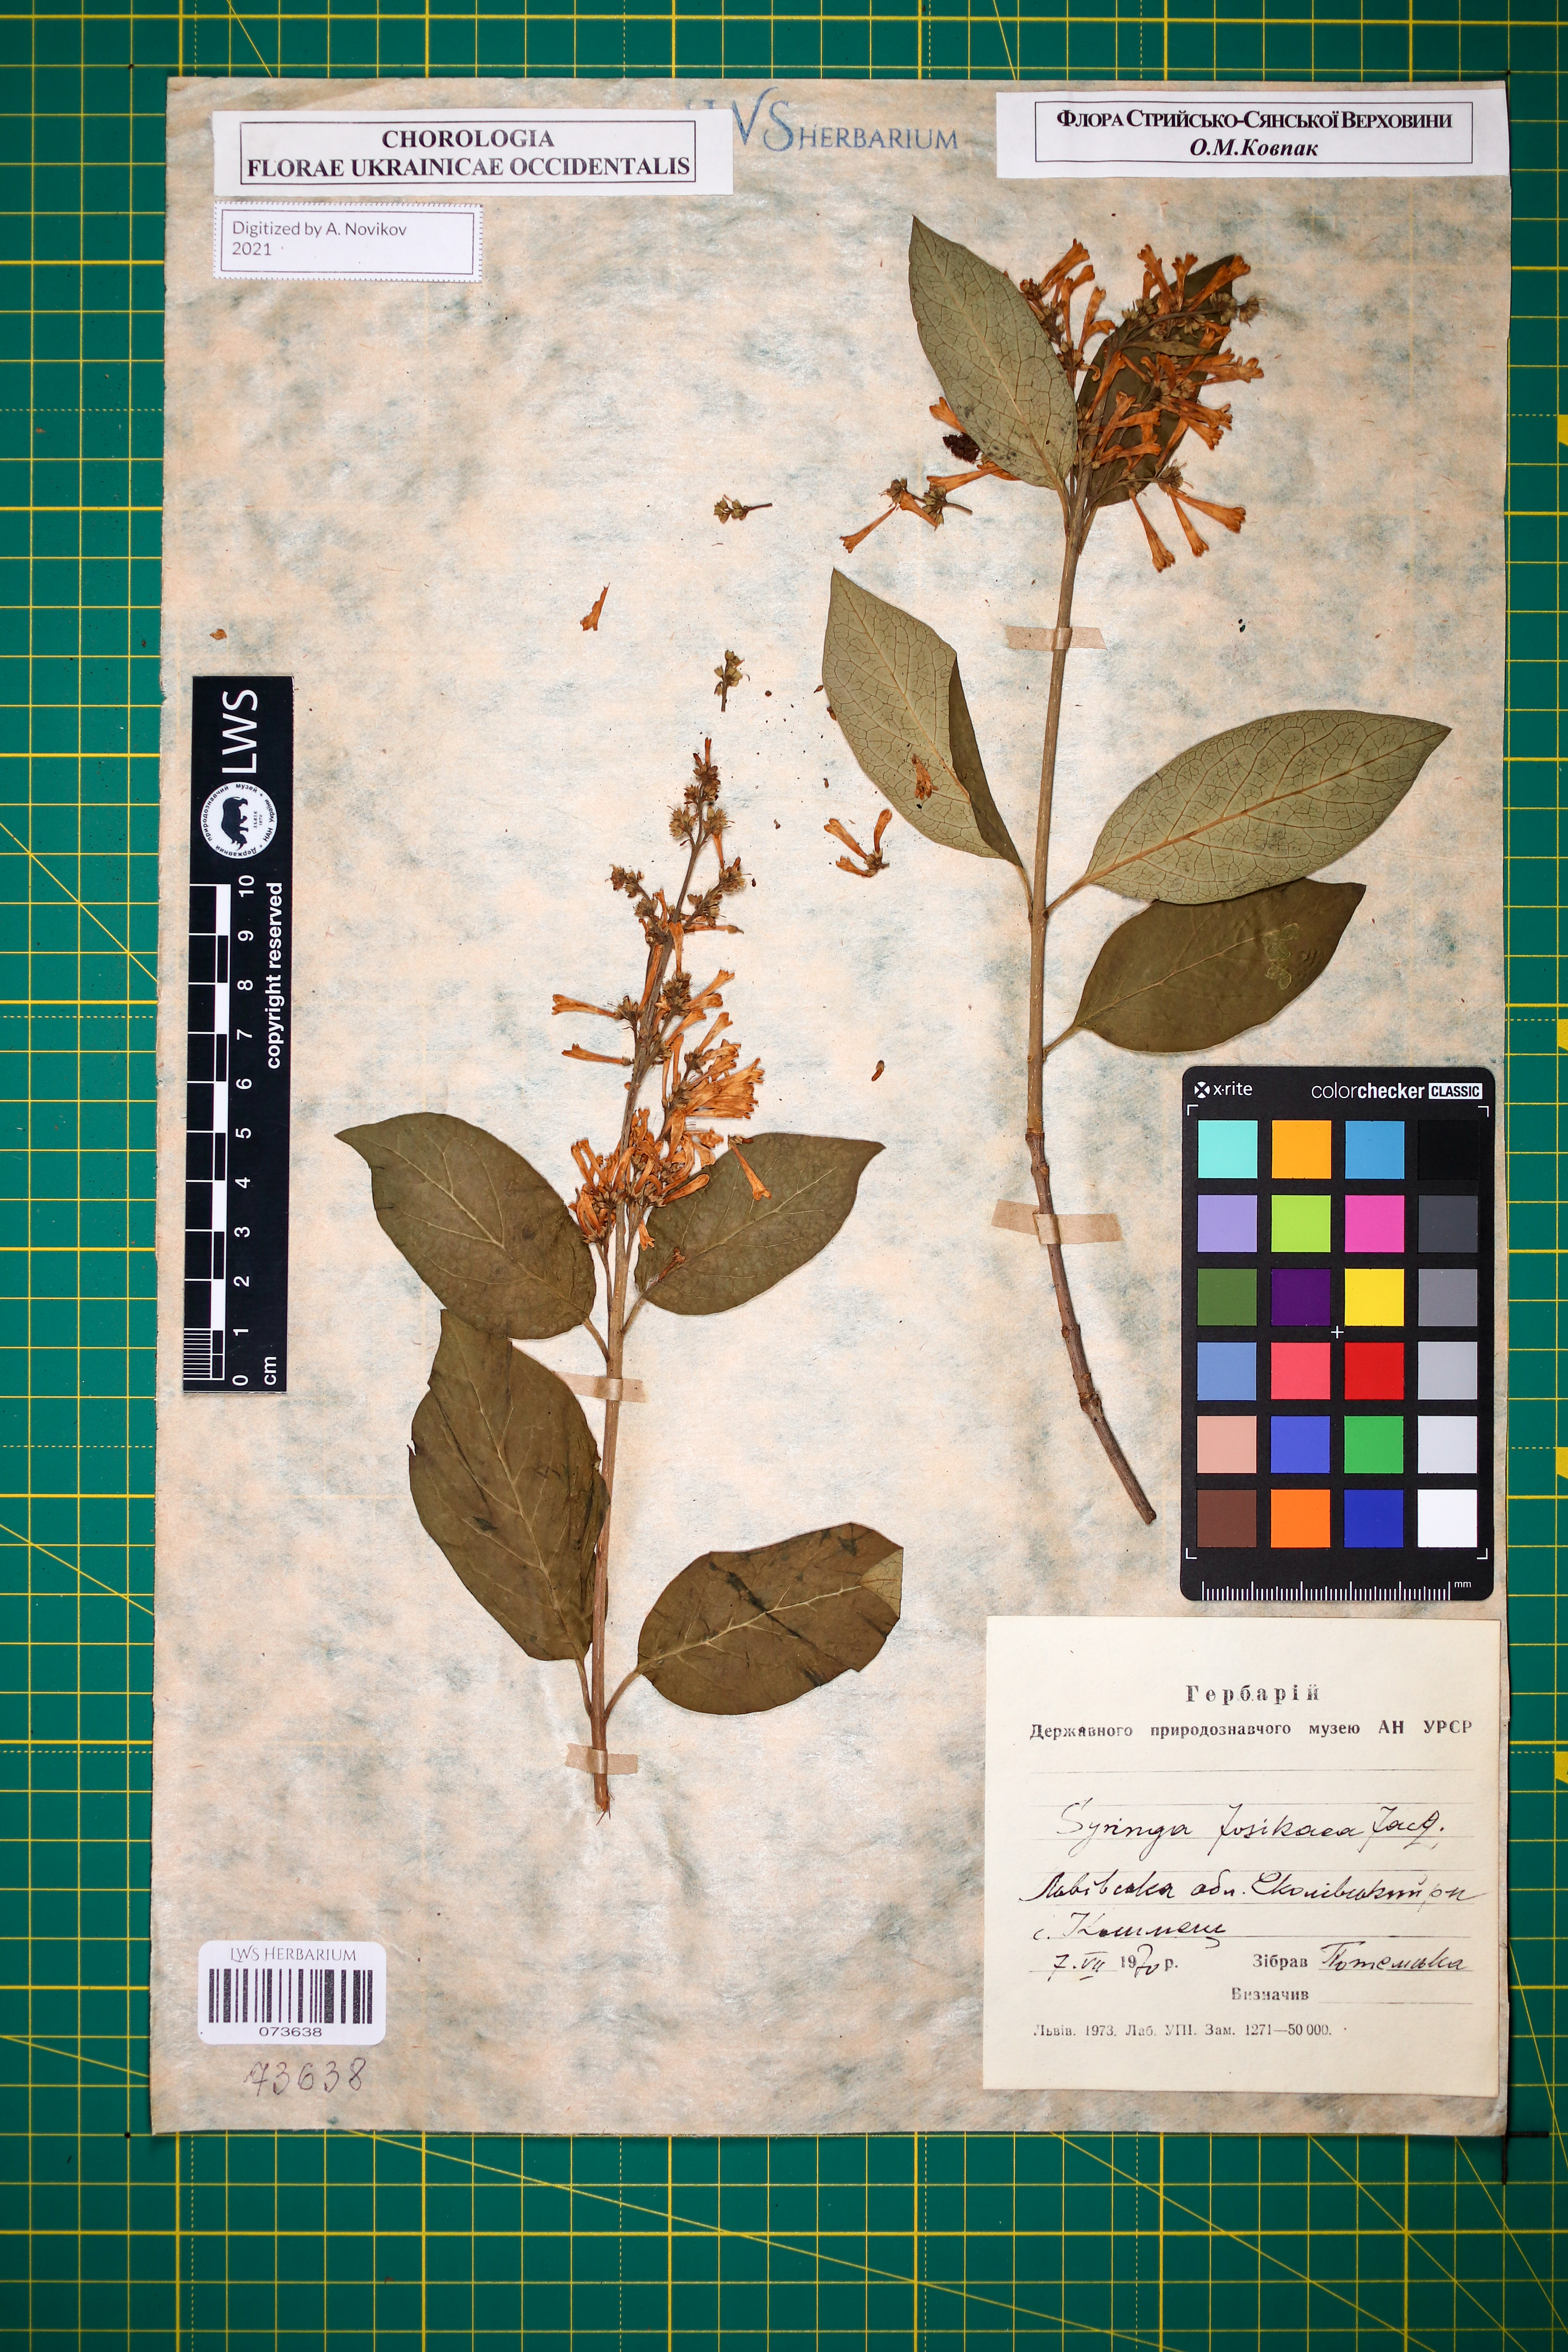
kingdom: Plantae
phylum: Tracheophyta
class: Magnoliopsida
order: Lamiales
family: Oleaceae
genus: Syringa
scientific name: Syringa josikaea
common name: Hungarian lilac
